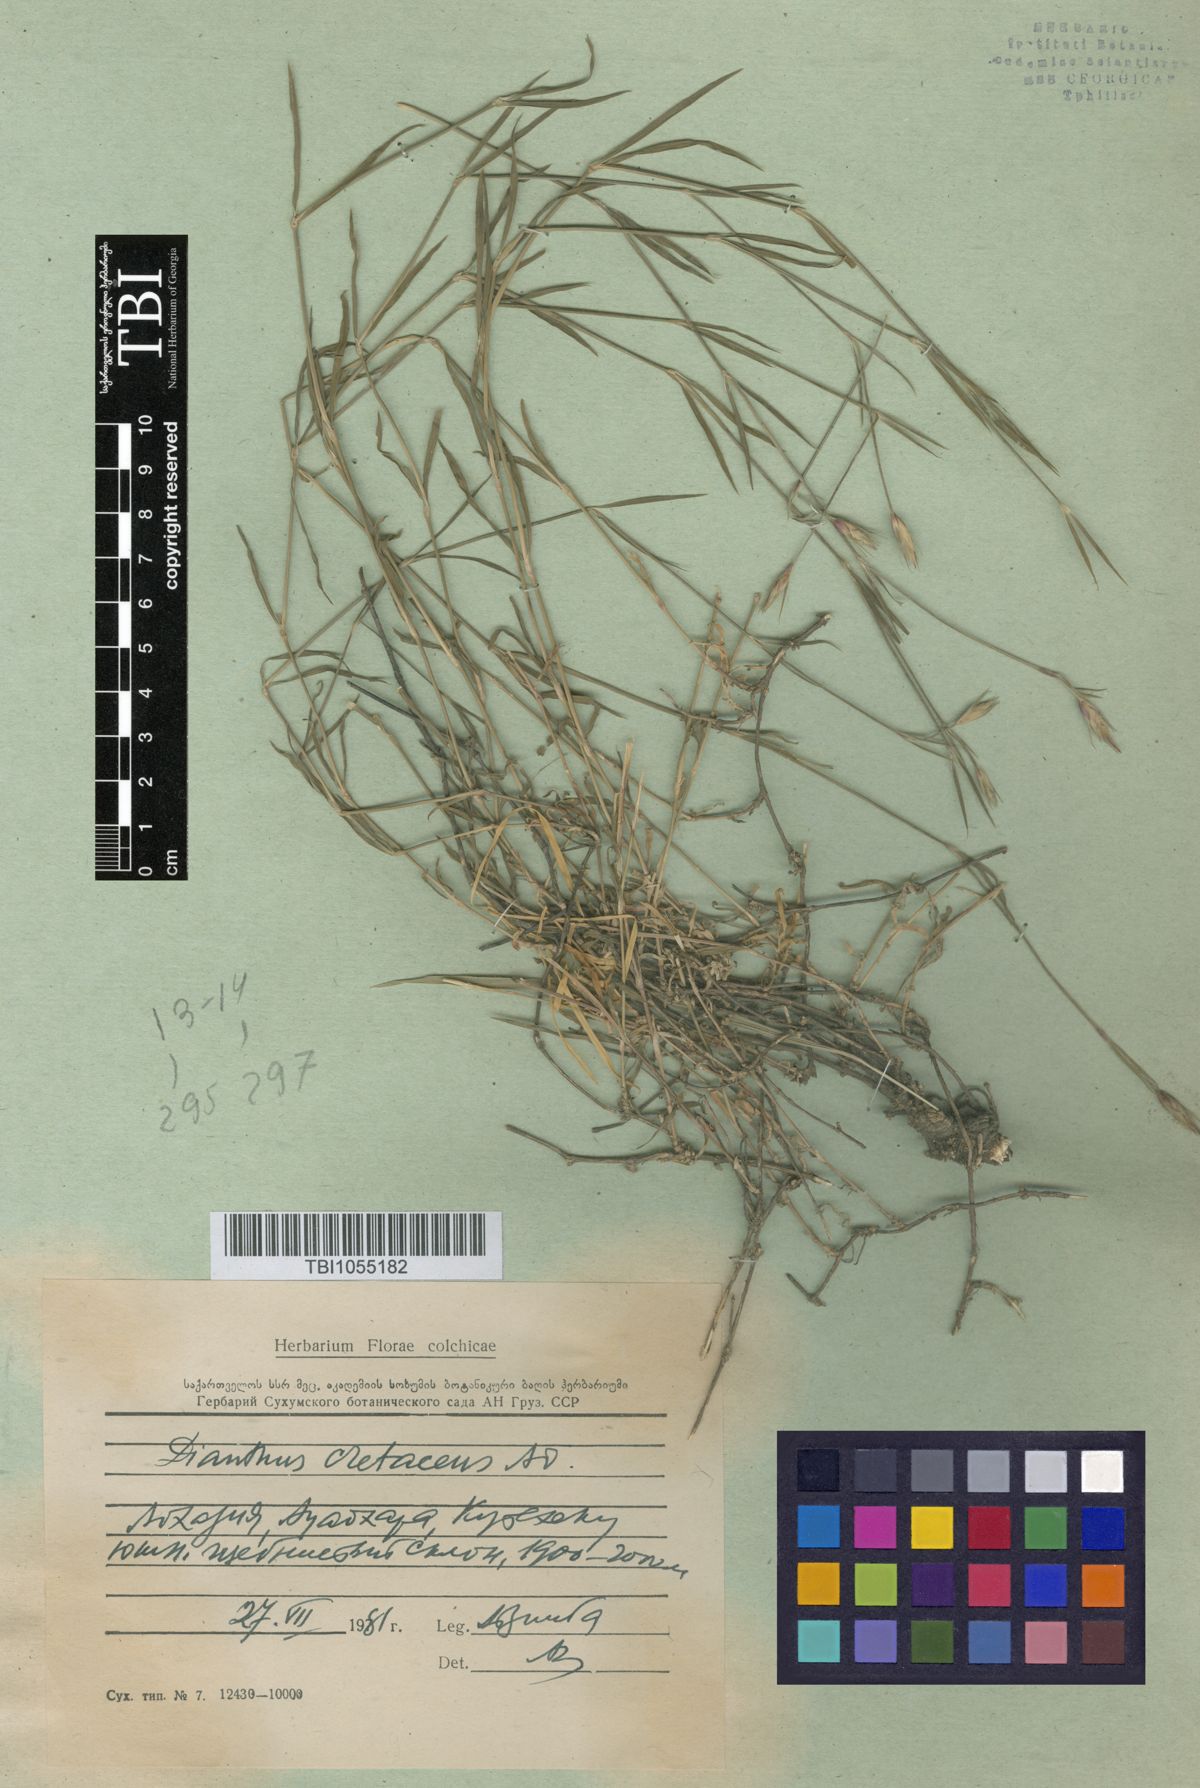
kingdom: Plantae
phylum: Tracheophyta
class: Magnoliopsida
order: Caryophyllales
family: Caryophyllaceae
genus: Dianthus
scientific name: Dianthus cretaceus
